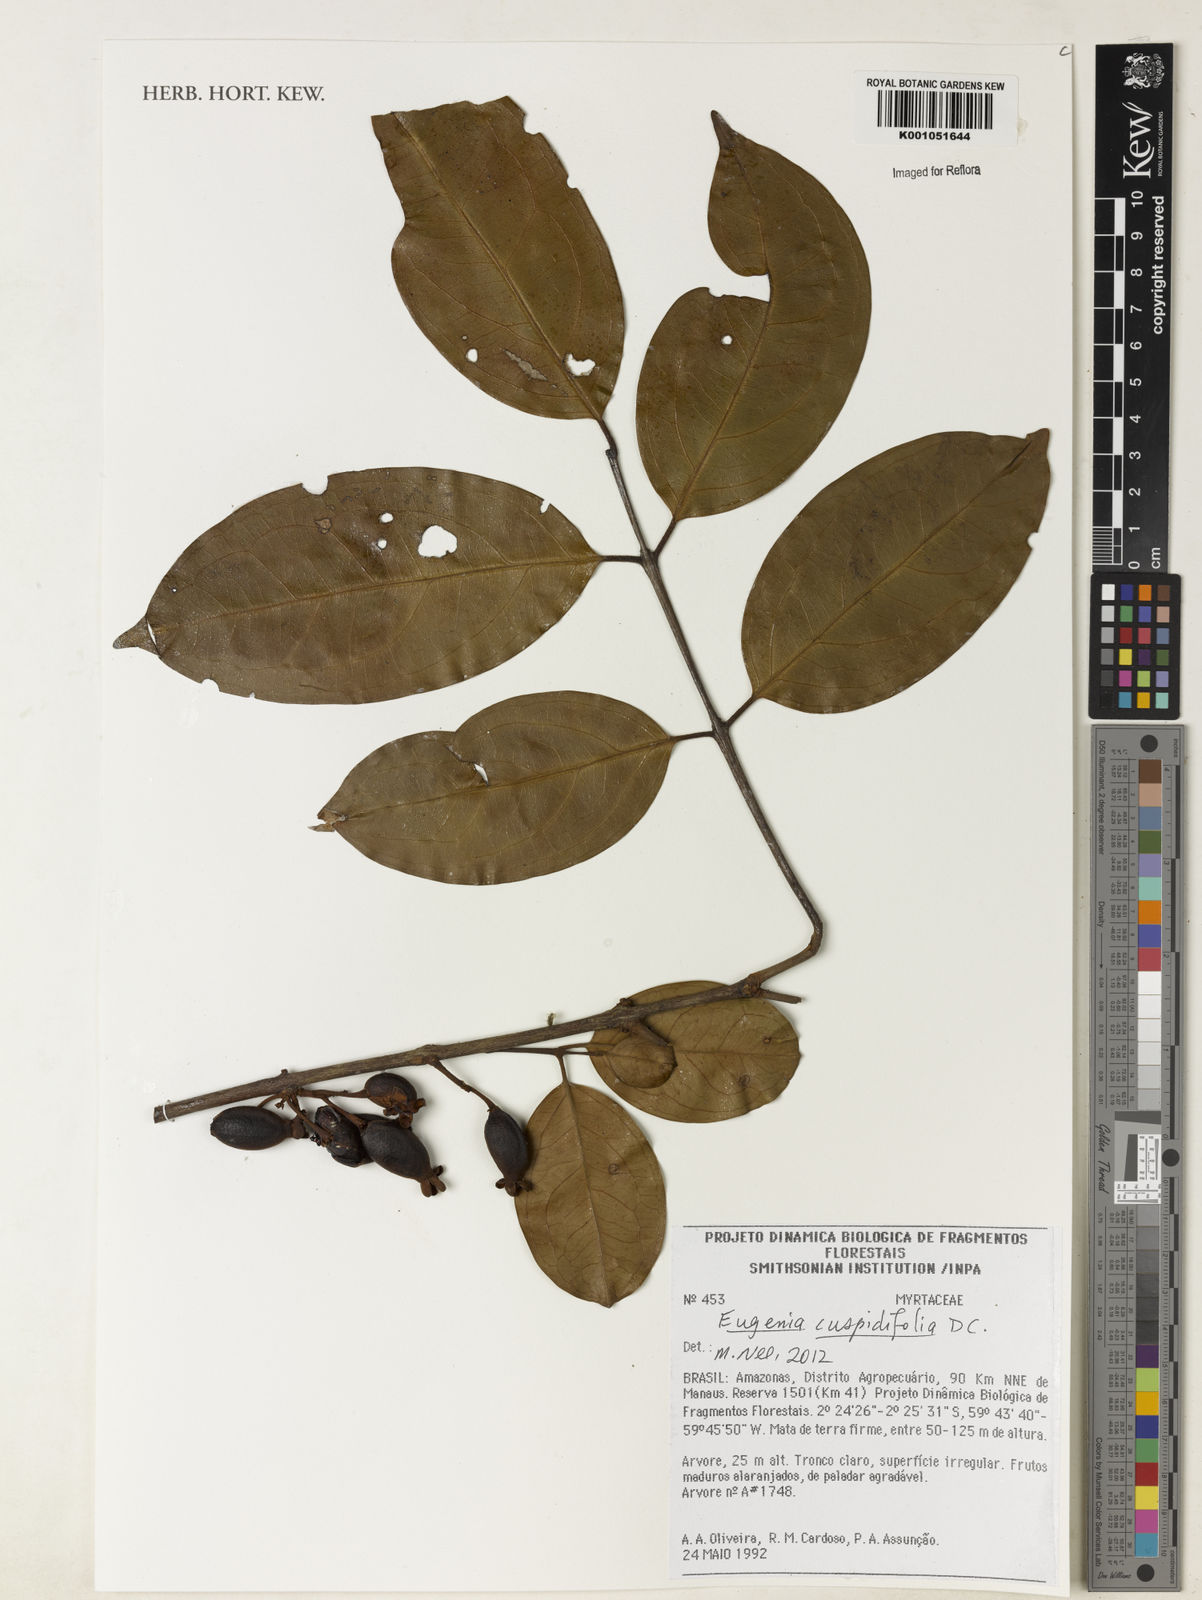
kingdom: Plantae
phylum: Tracheophyta
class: Magnoliopsida
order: Myrtales
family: Myrtaceae
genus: Eugenia
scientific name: Eugenia joseramosii
